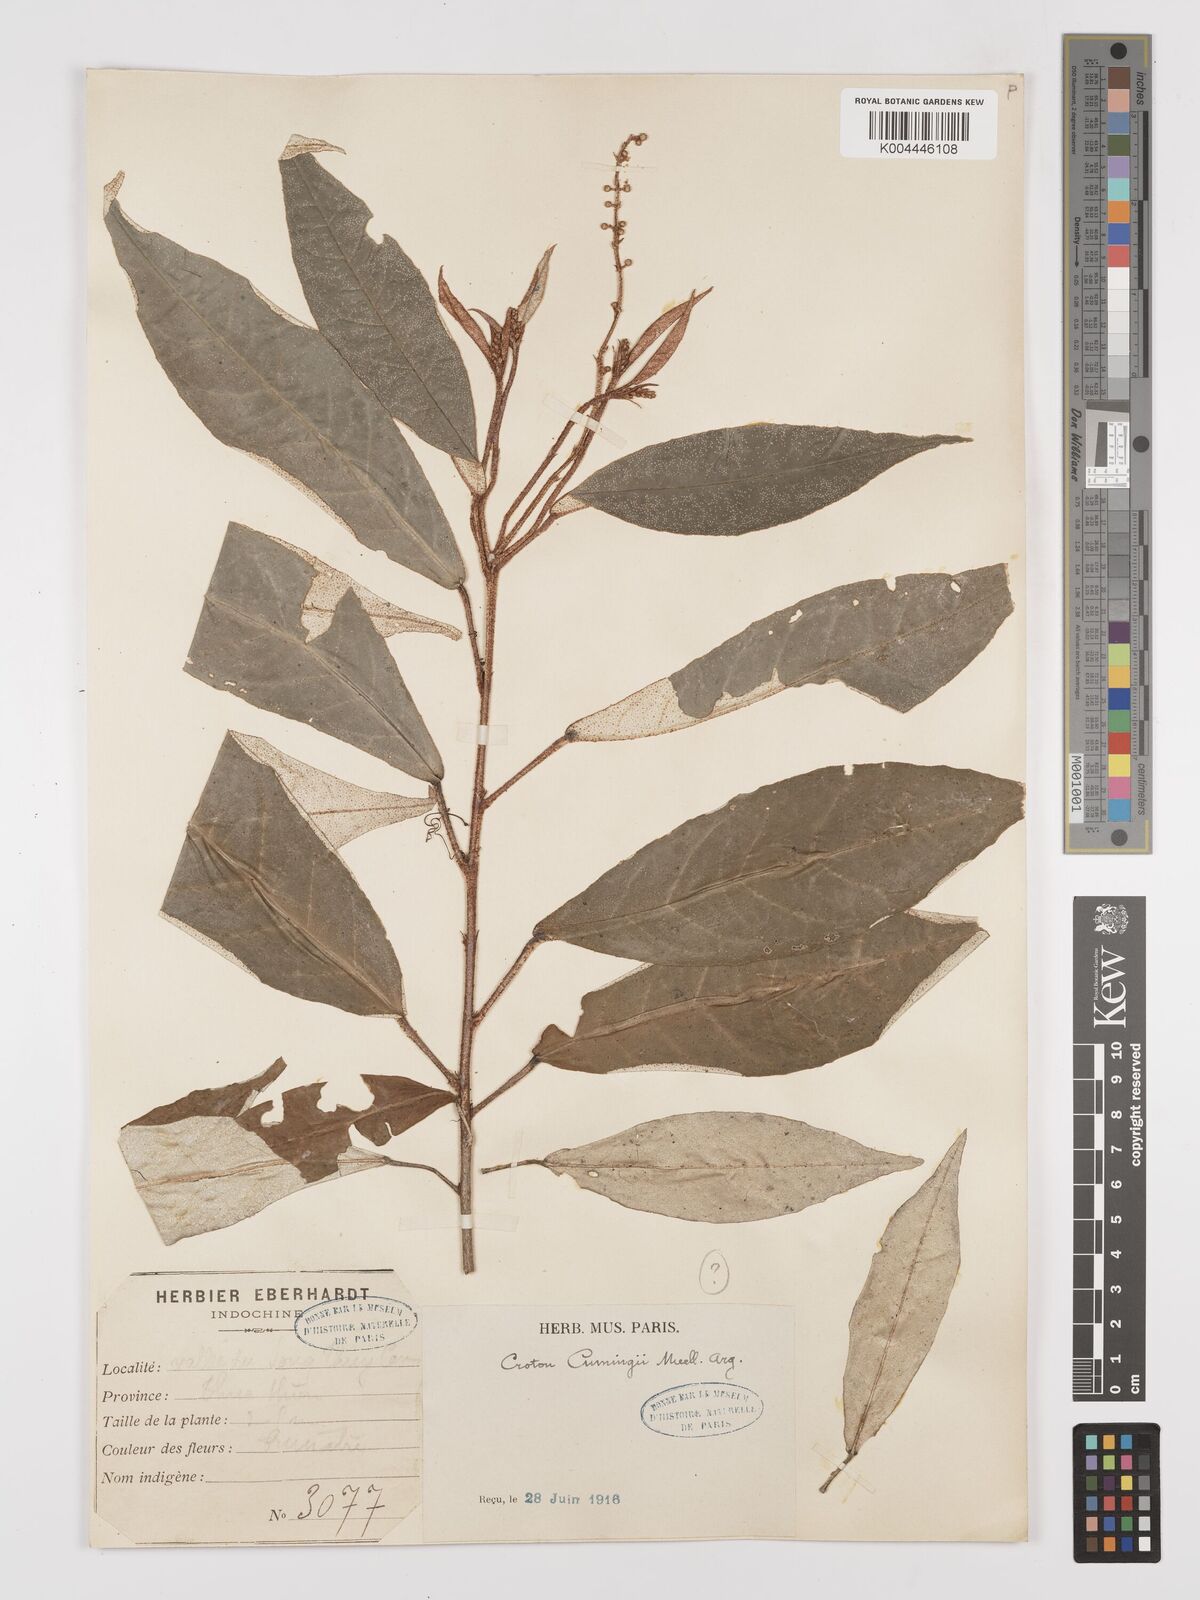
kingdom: Plantae
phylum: Tracheophyta
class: Magnoliopsida
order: Malpighiales
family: Euphorbiaceae
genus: Croton
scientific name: Croton cascarilloides
